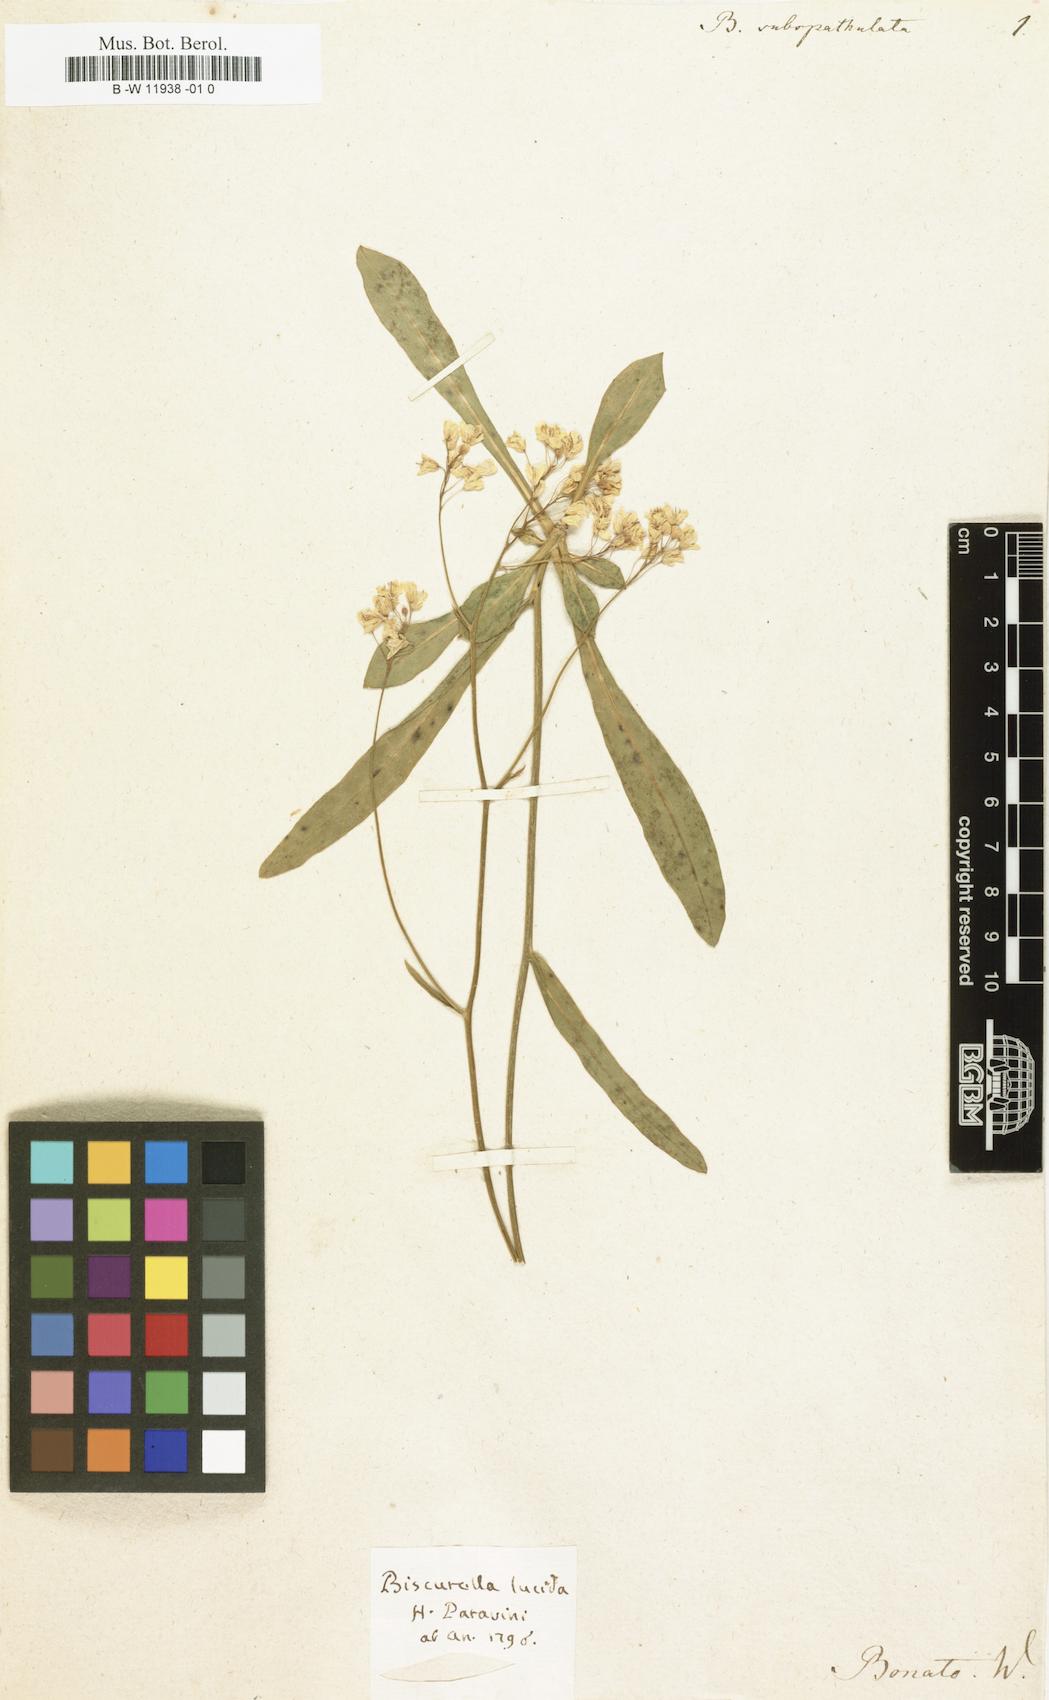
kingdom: Plantae
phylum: Tracheophyta
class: Magnoliopsida
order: Brassicales
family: Brassicaceae
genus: Biscutella
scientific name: Biscutella laevigata
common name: Buckler mustard
